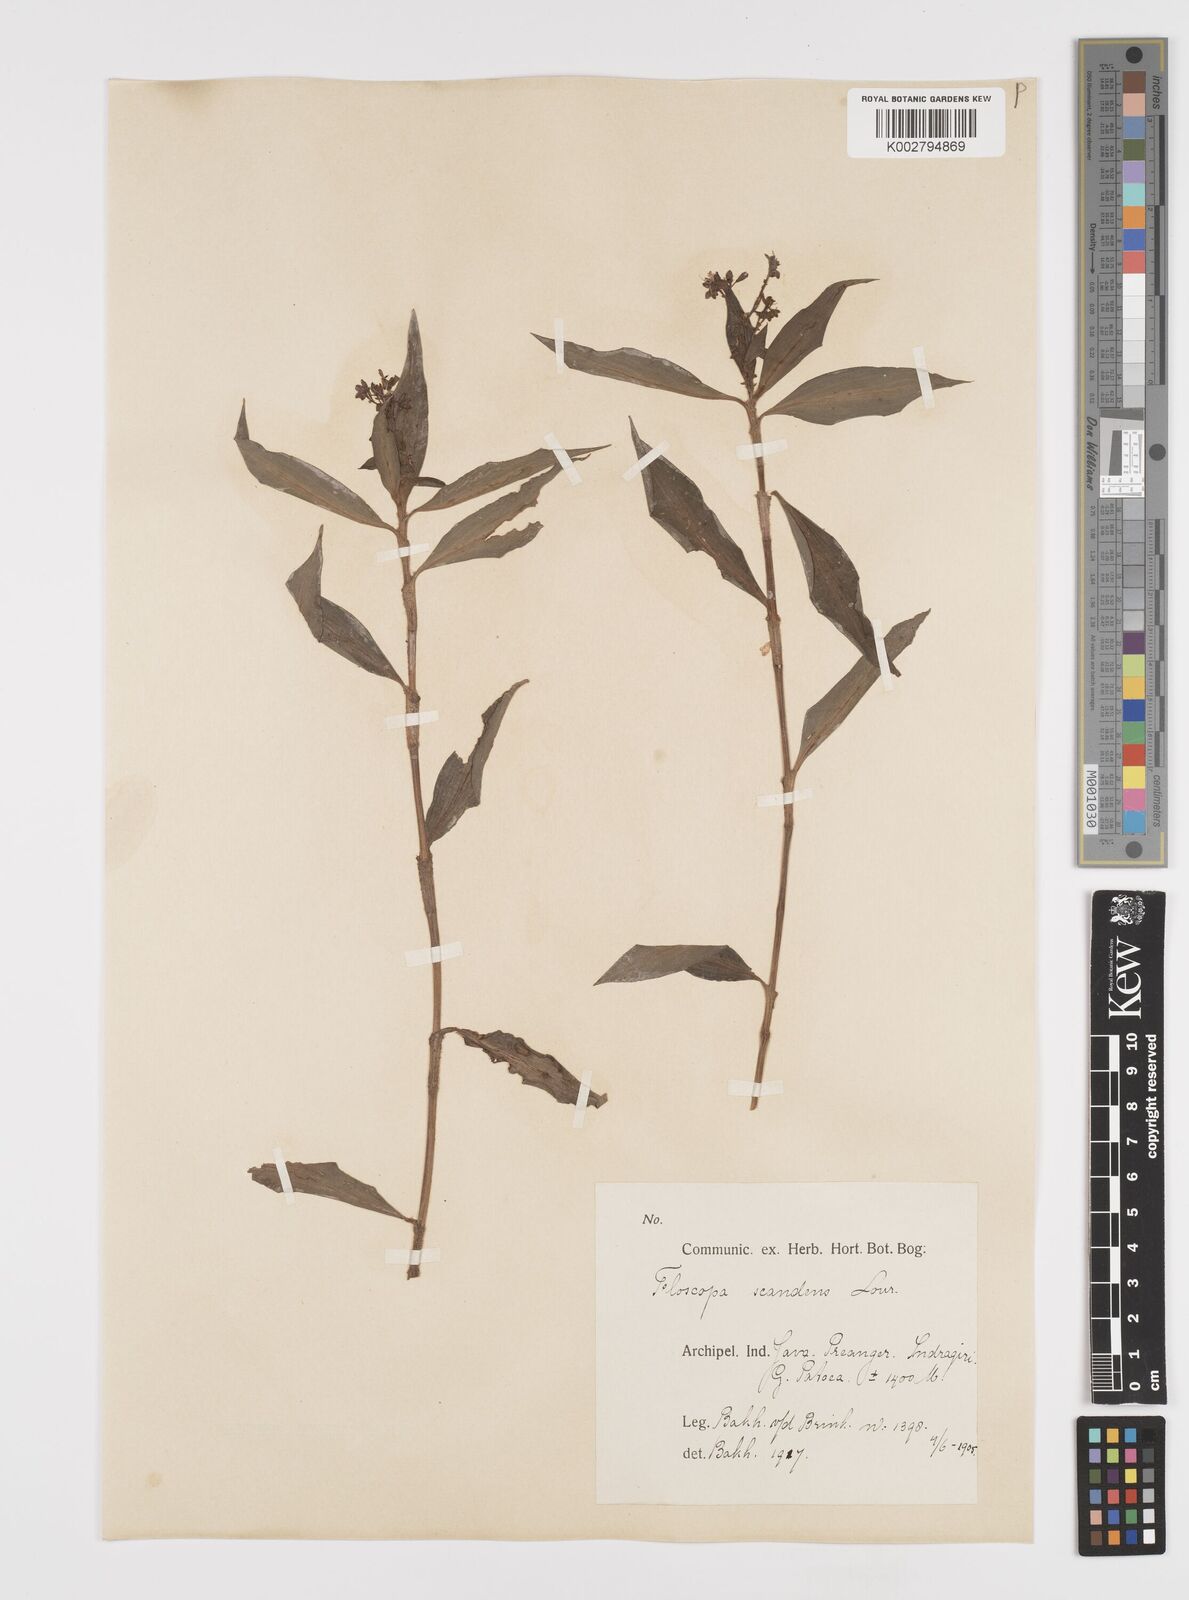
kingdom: Plantae
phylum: Tracheophyta
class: Liliopsida
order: Commelinales
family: Commelinaceae
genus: Floscopa
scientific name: Floscopa scandens
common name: Climbing flower cup
